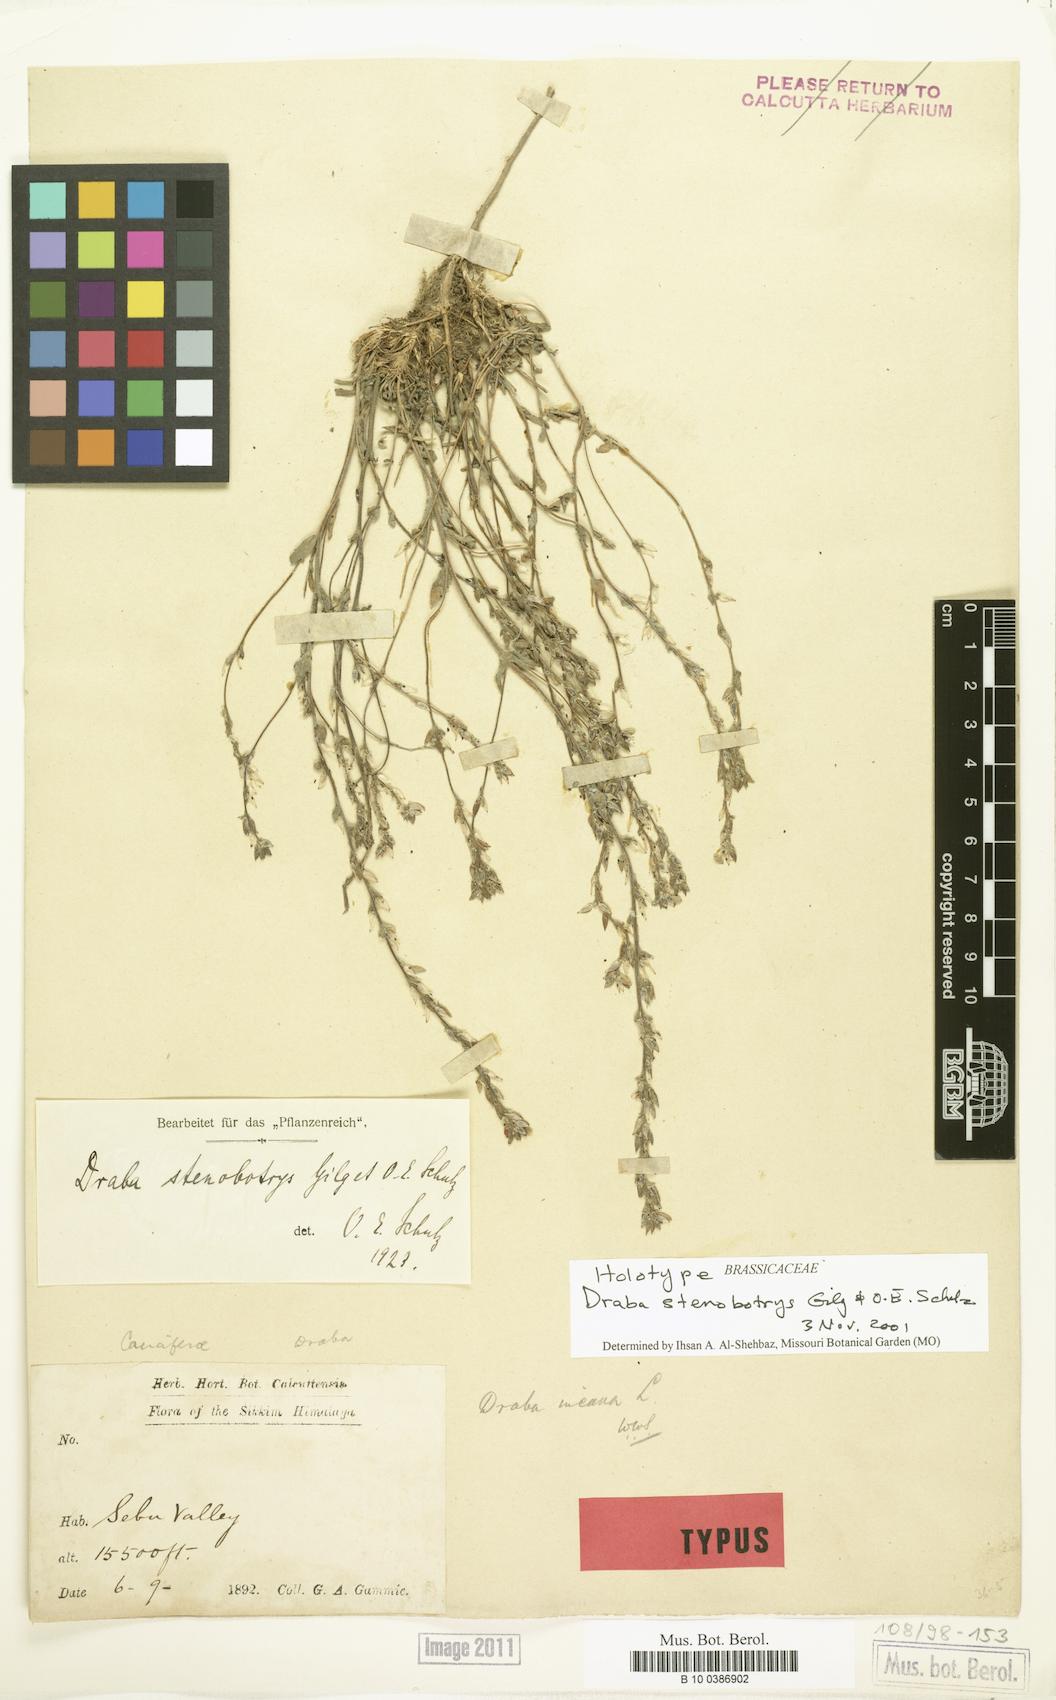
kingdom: Plantae
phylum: Tracheophyta
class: Magnoliopsida
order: Brassicales
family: Brassicaceae
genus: Draba
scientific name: Draba stenobotrys
